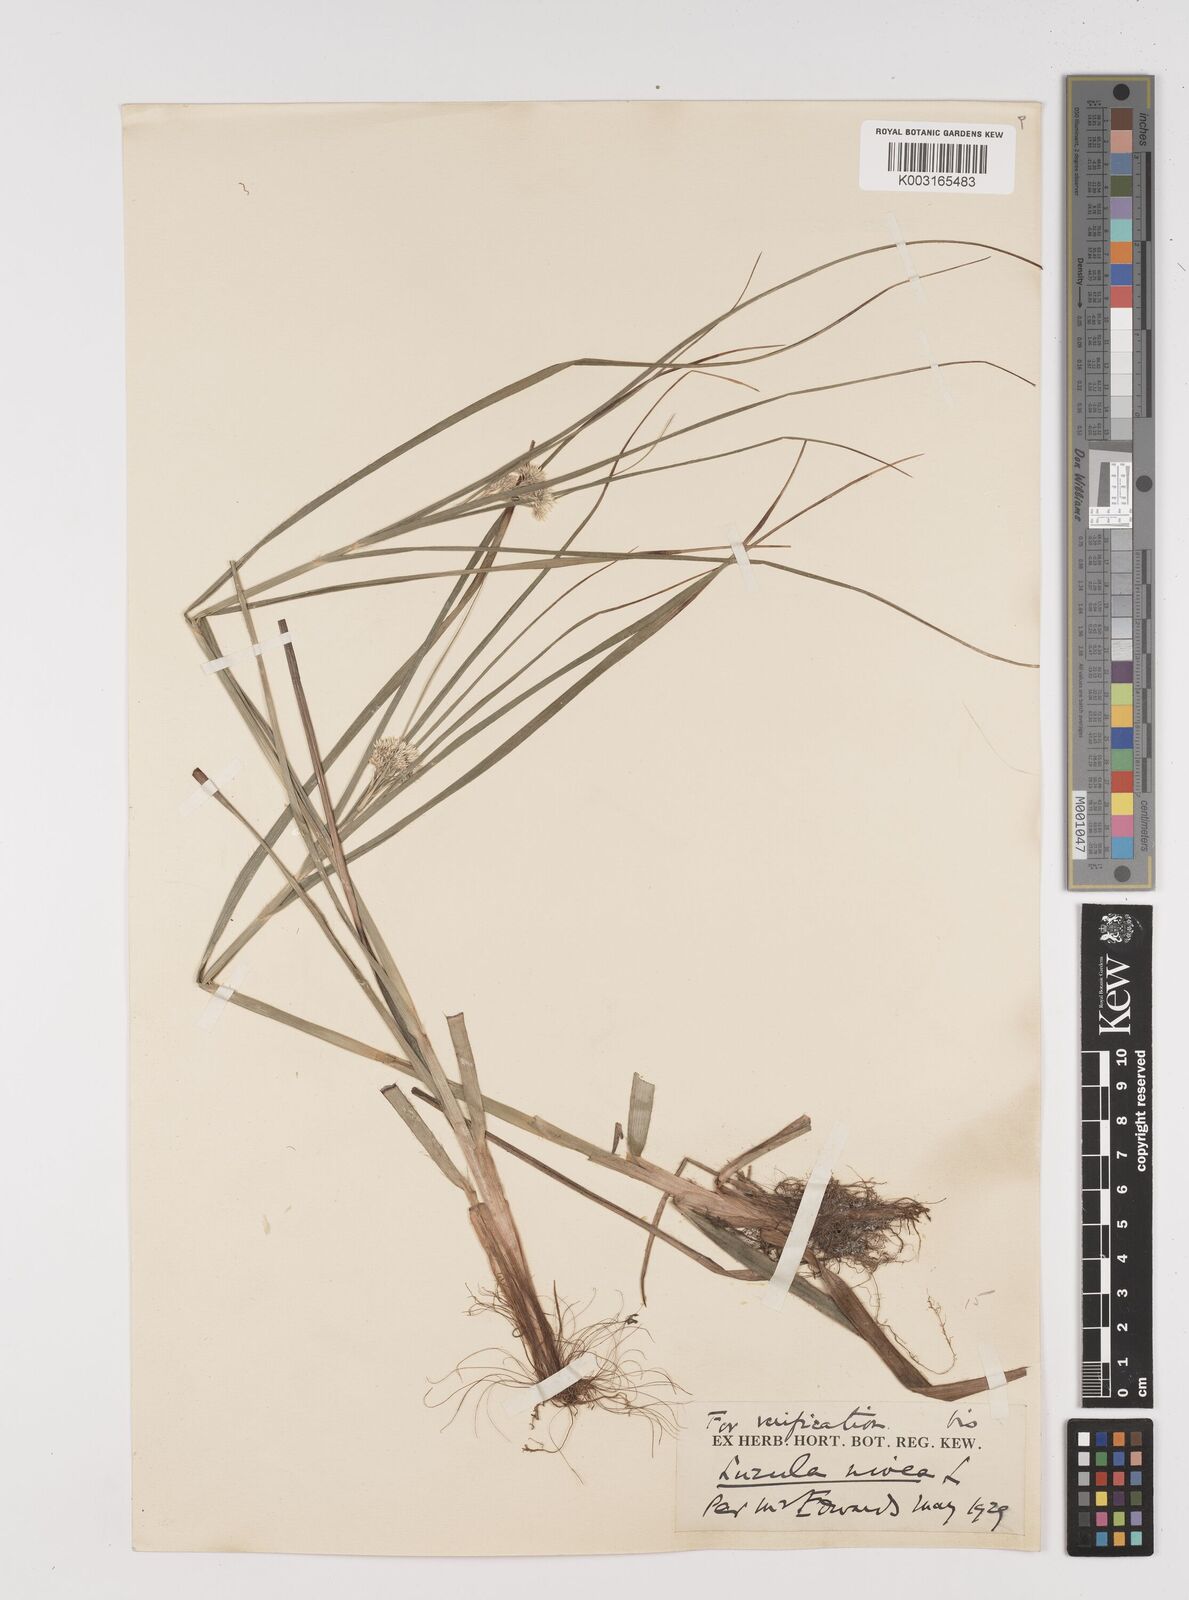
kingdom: Plantae
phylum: Tracheophyta
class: Liliopsida
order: Poales
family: Juncaceae
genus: Luzula
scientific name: Luzula nivea
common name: Snow-white wood-rush
